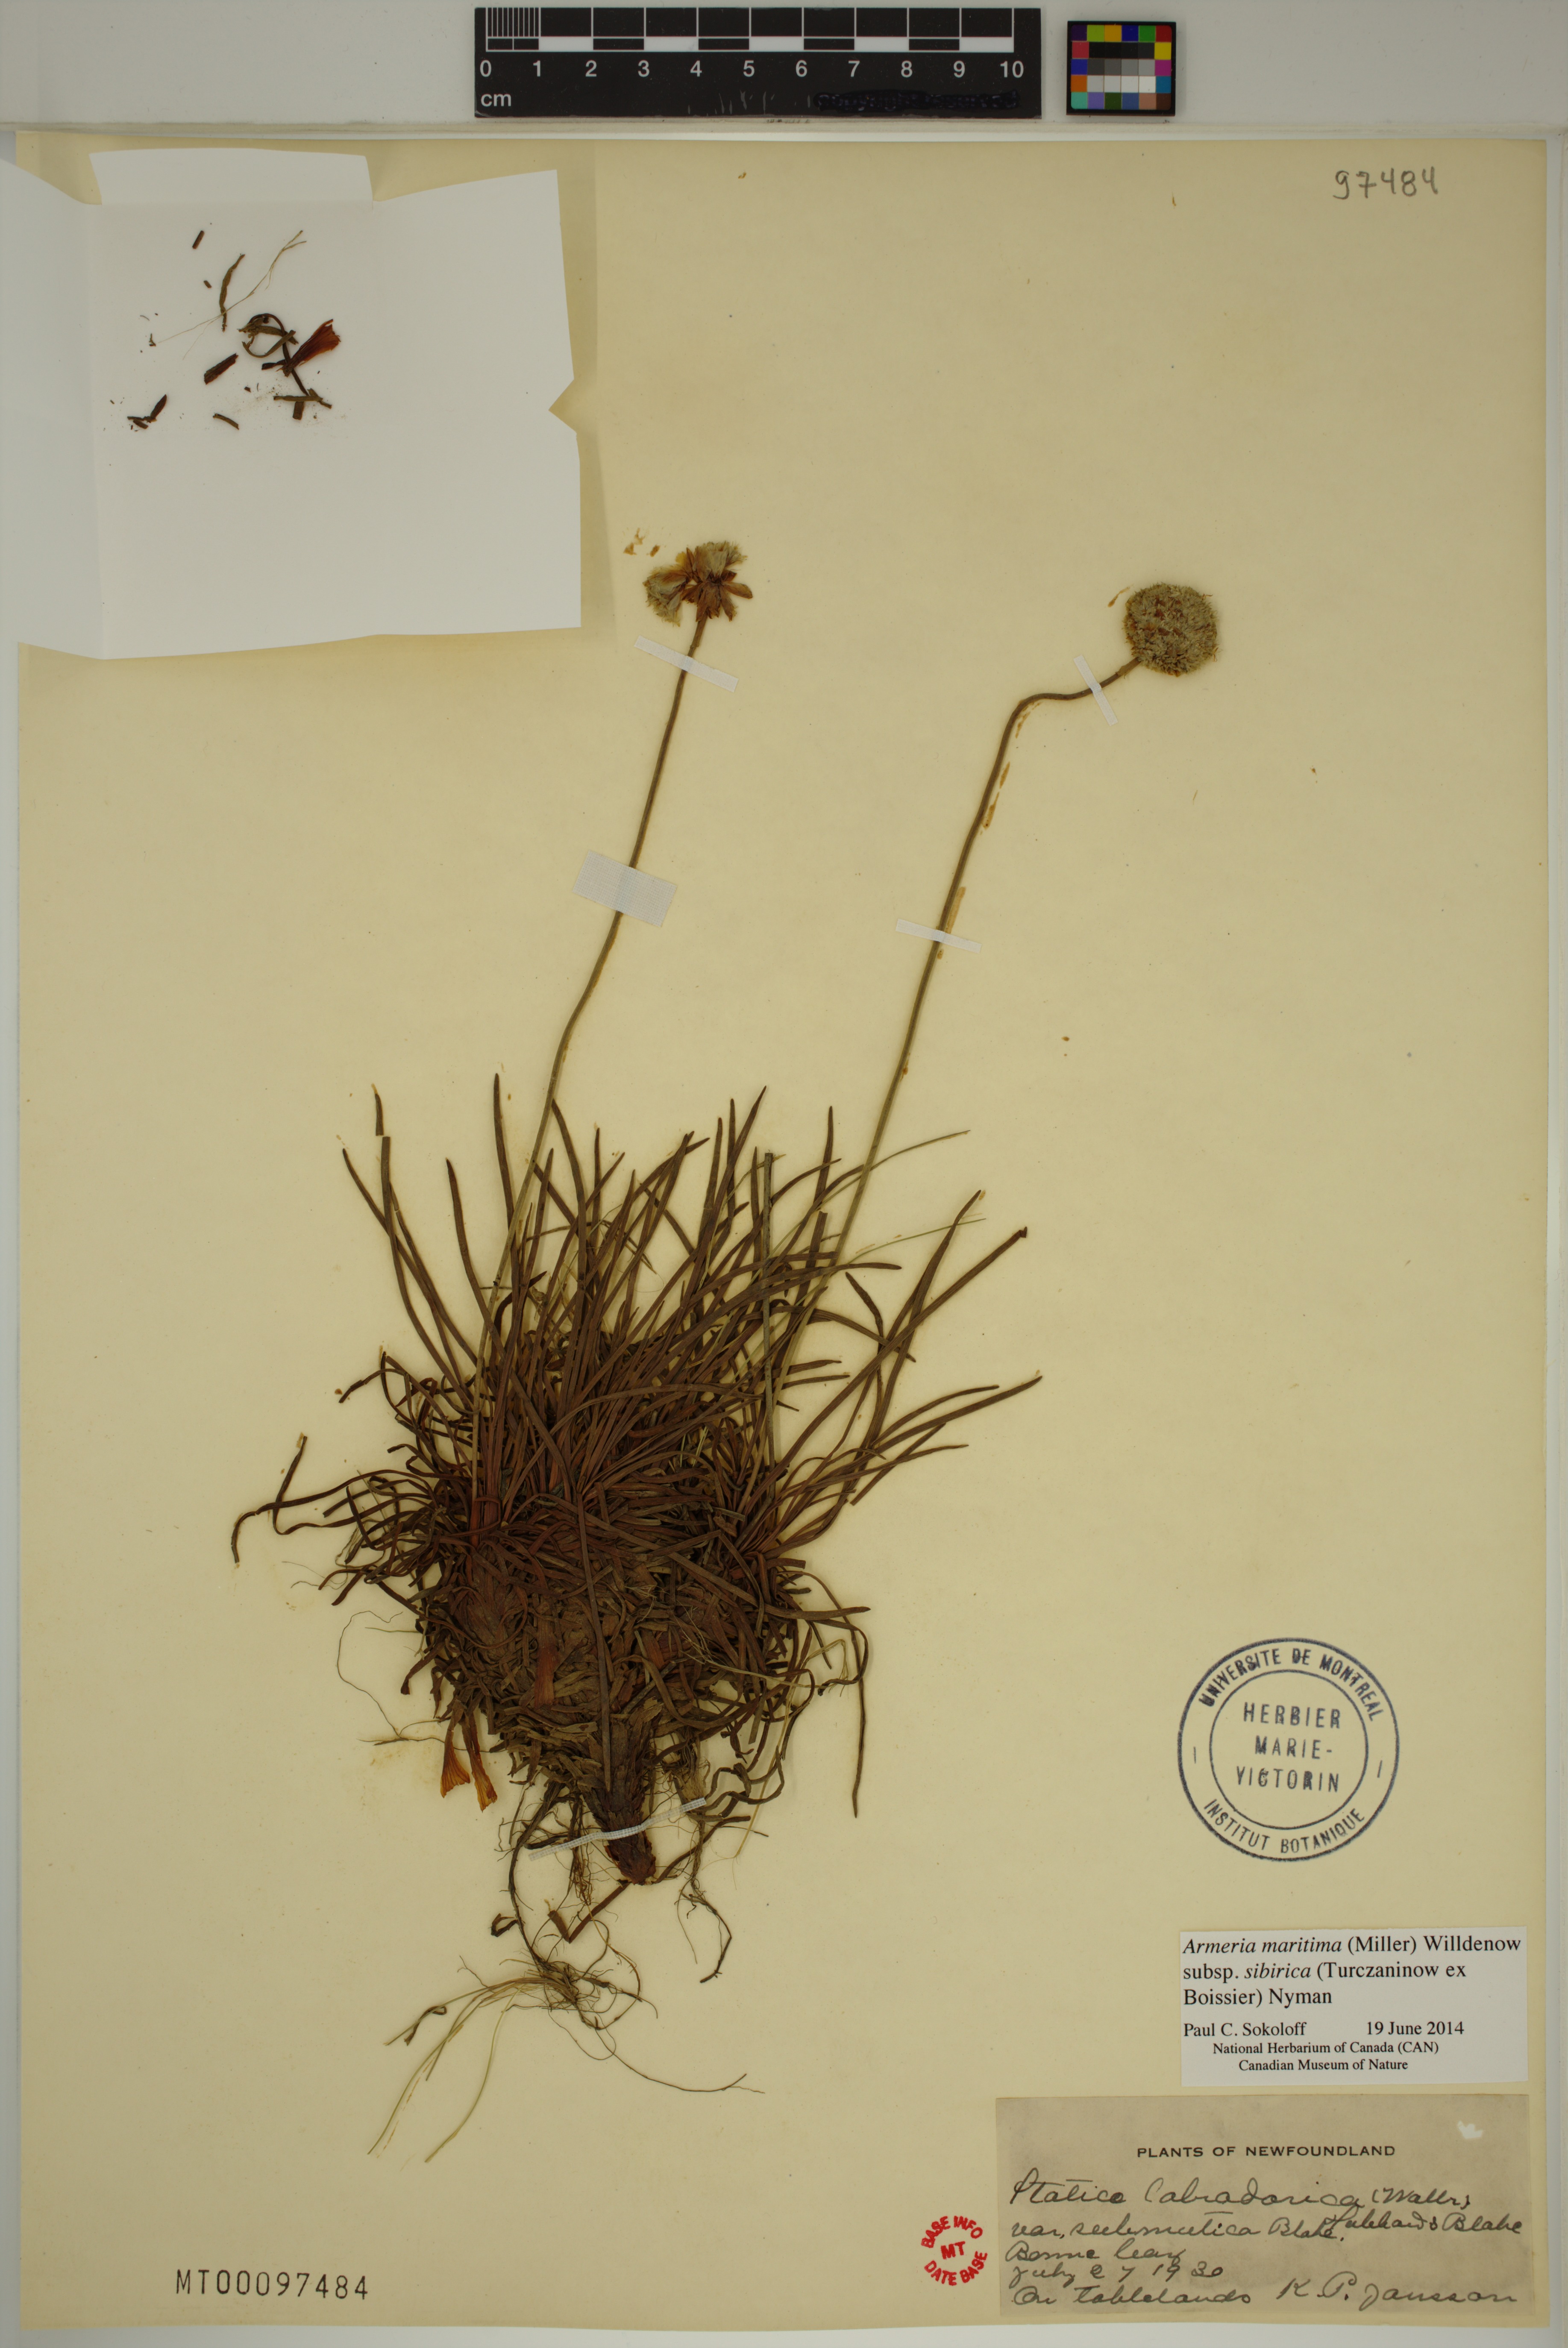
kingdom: Plantae
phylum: Tracheophyta
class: Magnoliopsida
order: Caryophyllales
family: Plumbaginaceae
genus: Armeria
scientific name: Armeria maritima
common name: Thrift
